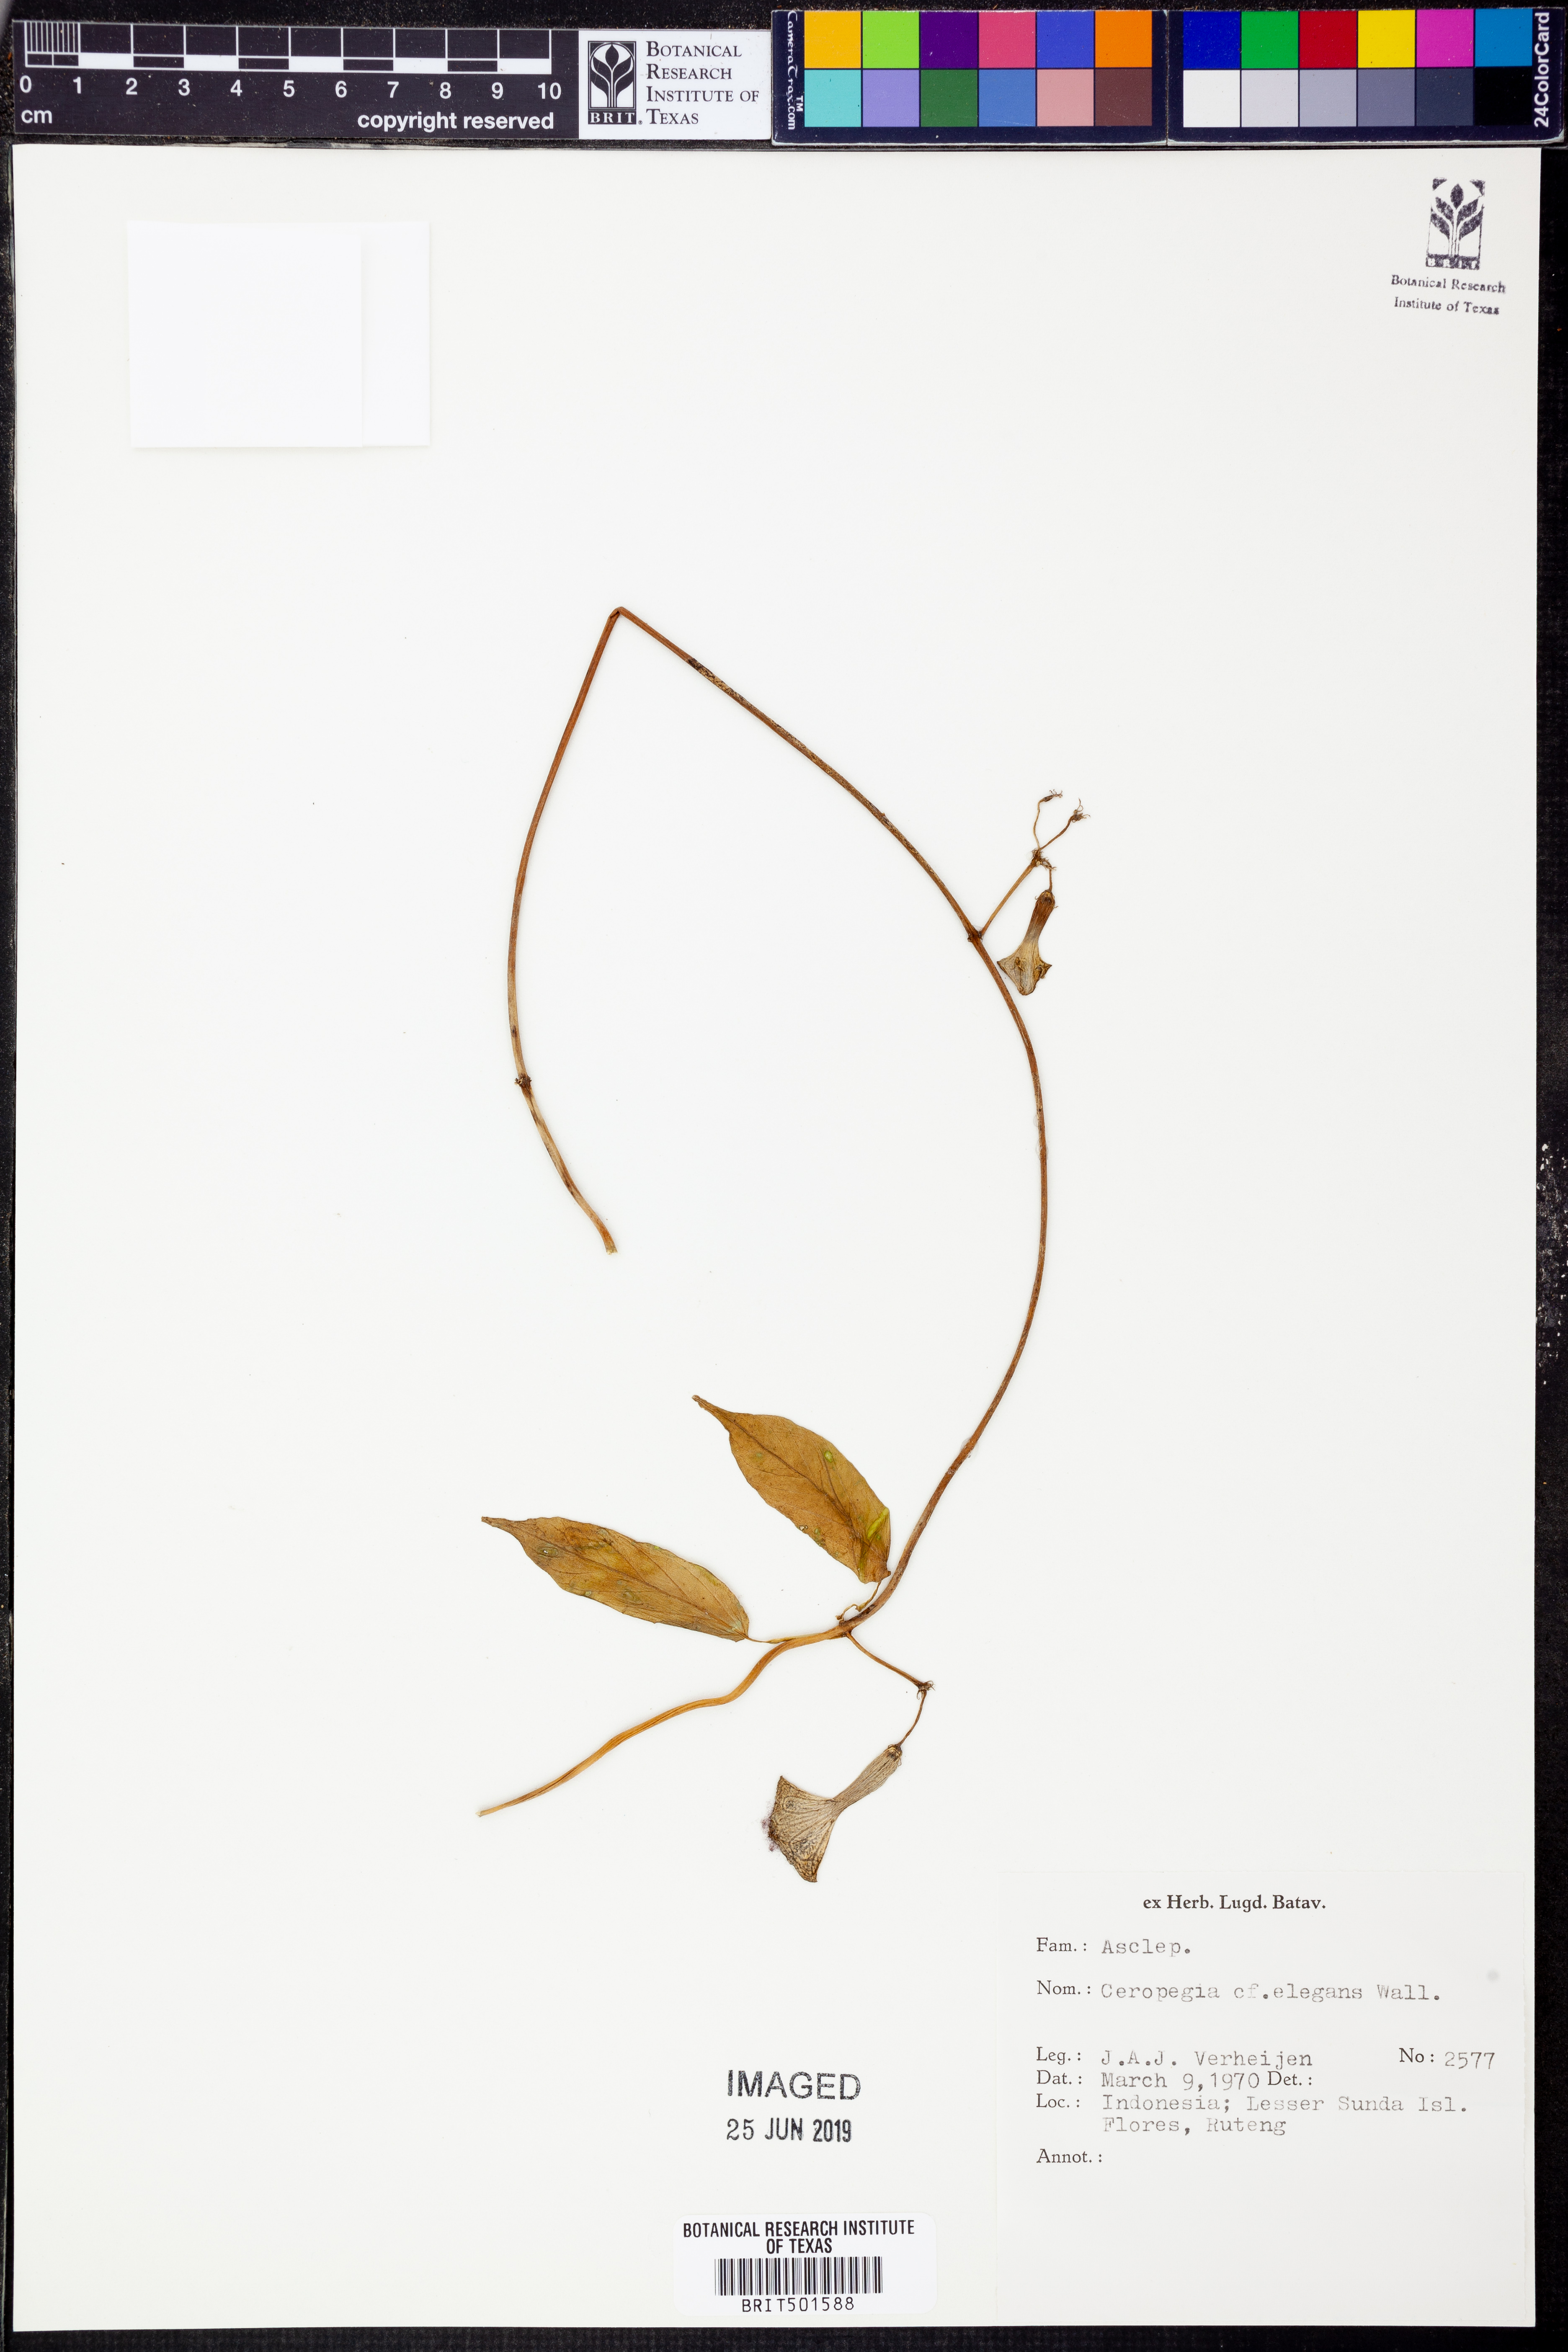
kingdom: Plantae
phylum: Tracheophyta
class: Magnoliopsida
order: Gentianales
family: Apocynaceae
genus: Ceropegia
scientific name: Ceropegia elegans
